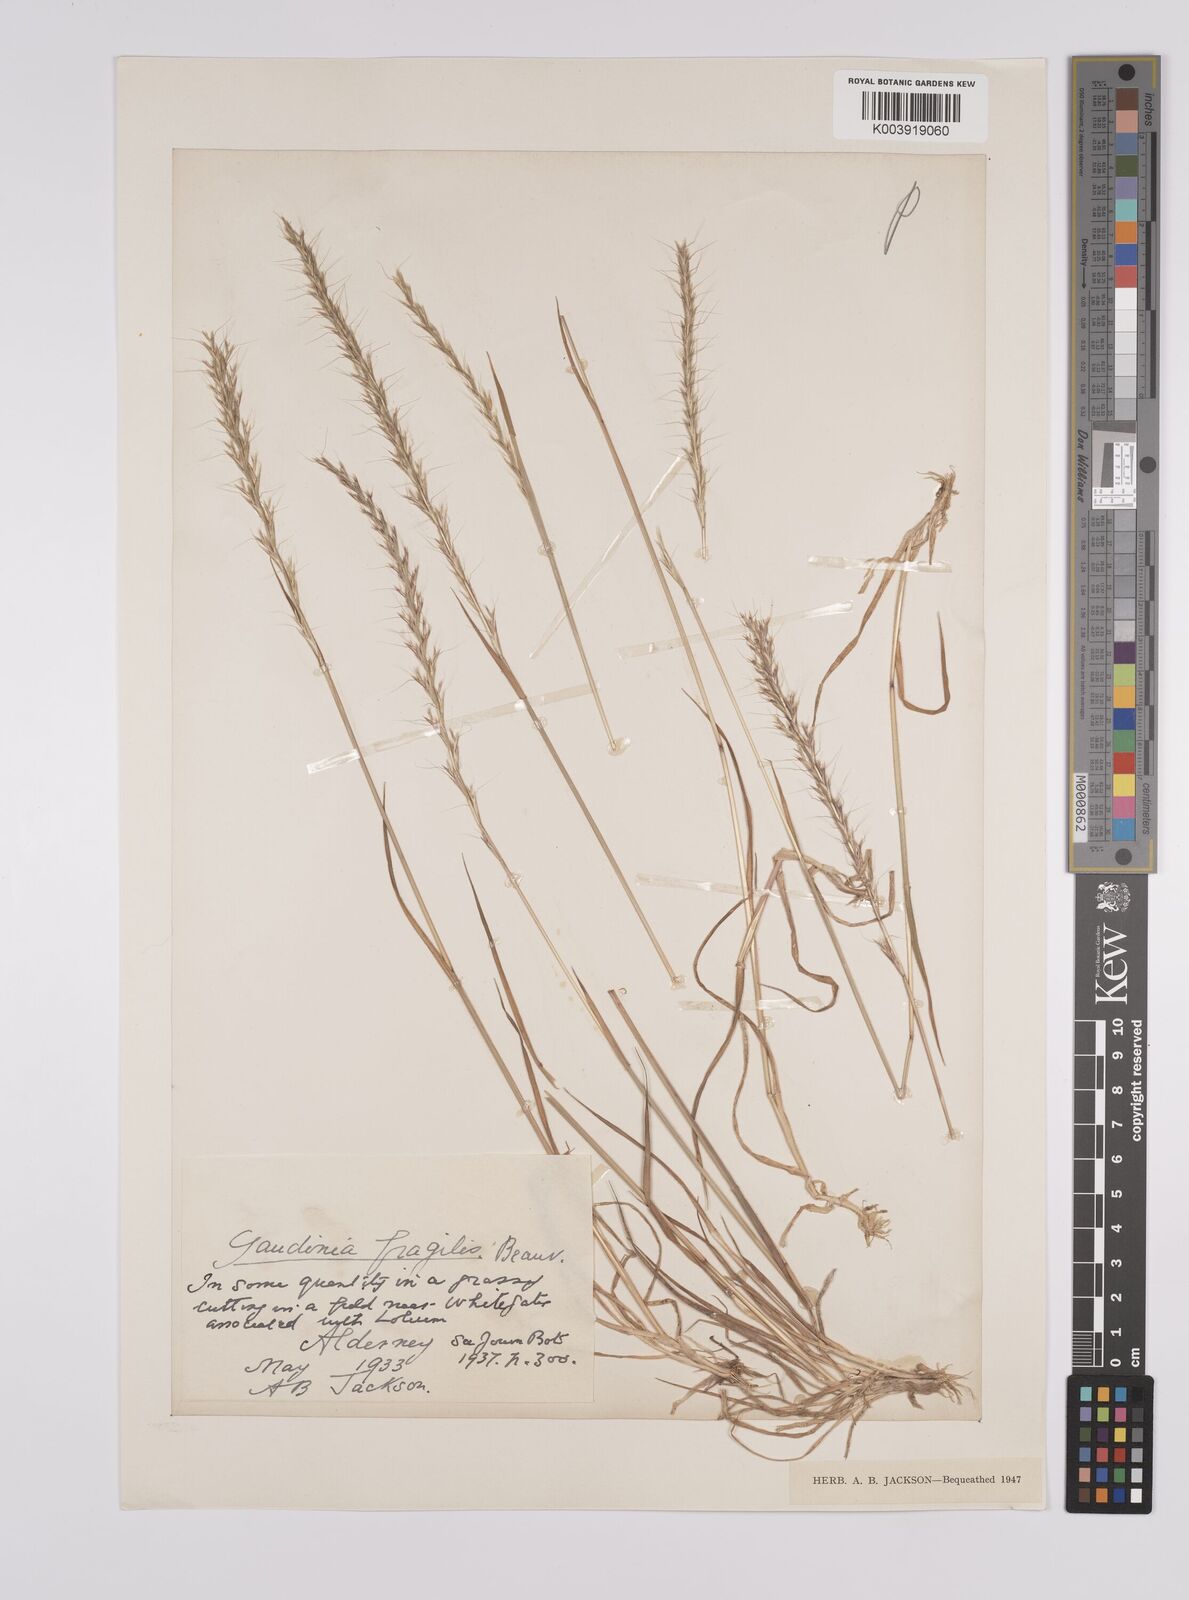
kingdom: Plantae
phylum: Tracheophyta
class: Liliopsida
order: Poales
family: Poaceae
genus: Gaudinia
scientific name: Gaudinia fragilis
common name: French oat-grass
